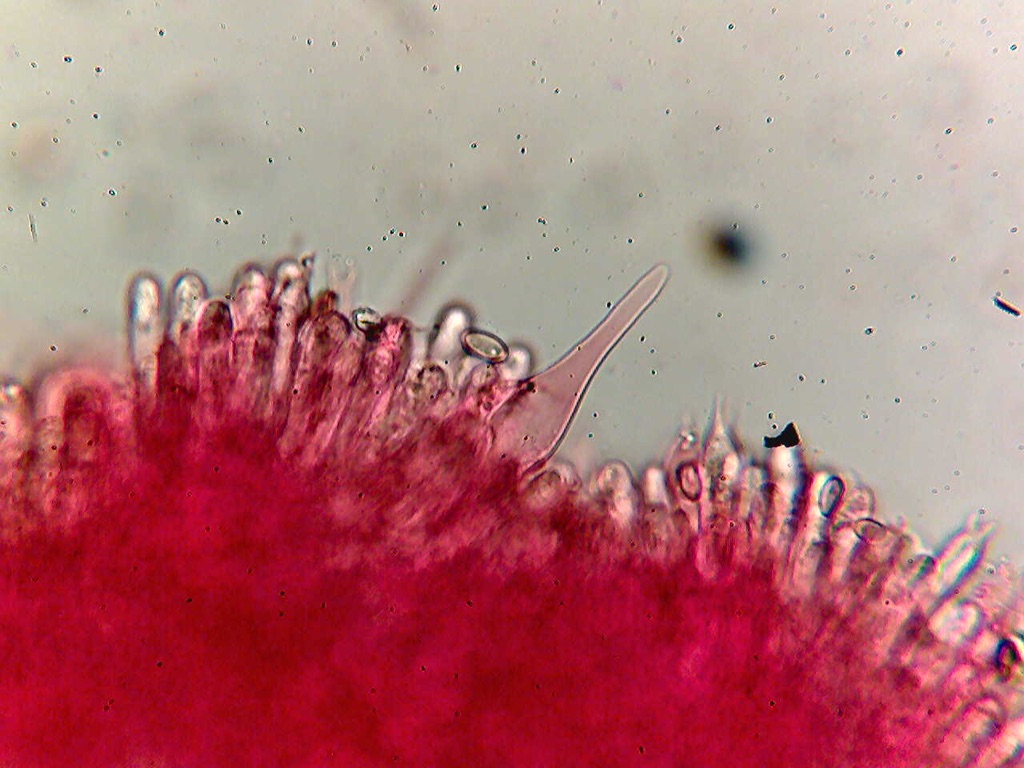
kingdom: Fungi
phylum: Basidiomycota
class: Agaricomycetes
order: Agaricales
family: Tricholomataceae
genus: Mycenella
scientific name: Mycenella bryophila
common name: mos-dughat
